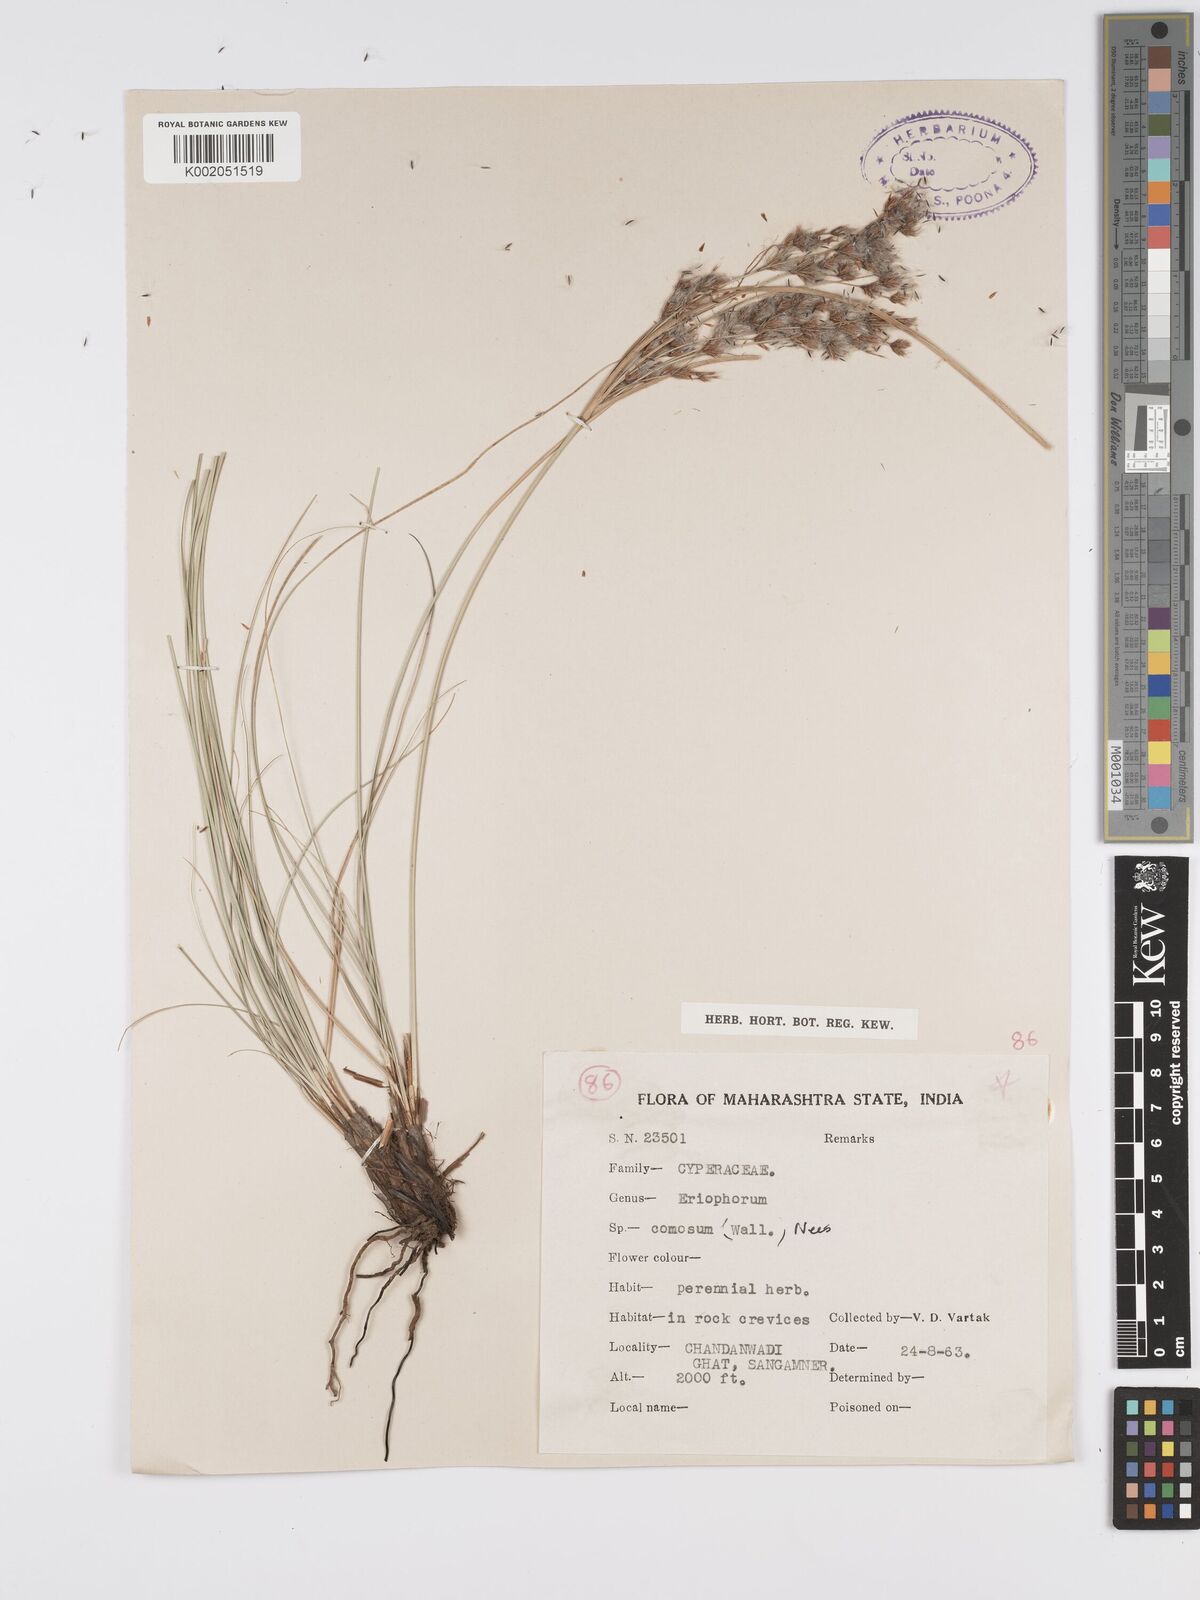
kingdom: Plantae
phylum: Tracheophyta
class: Liliopsida
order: Poales
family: Cyperaceae
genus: Erioscirpus
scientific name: Erioscirpus comosus
